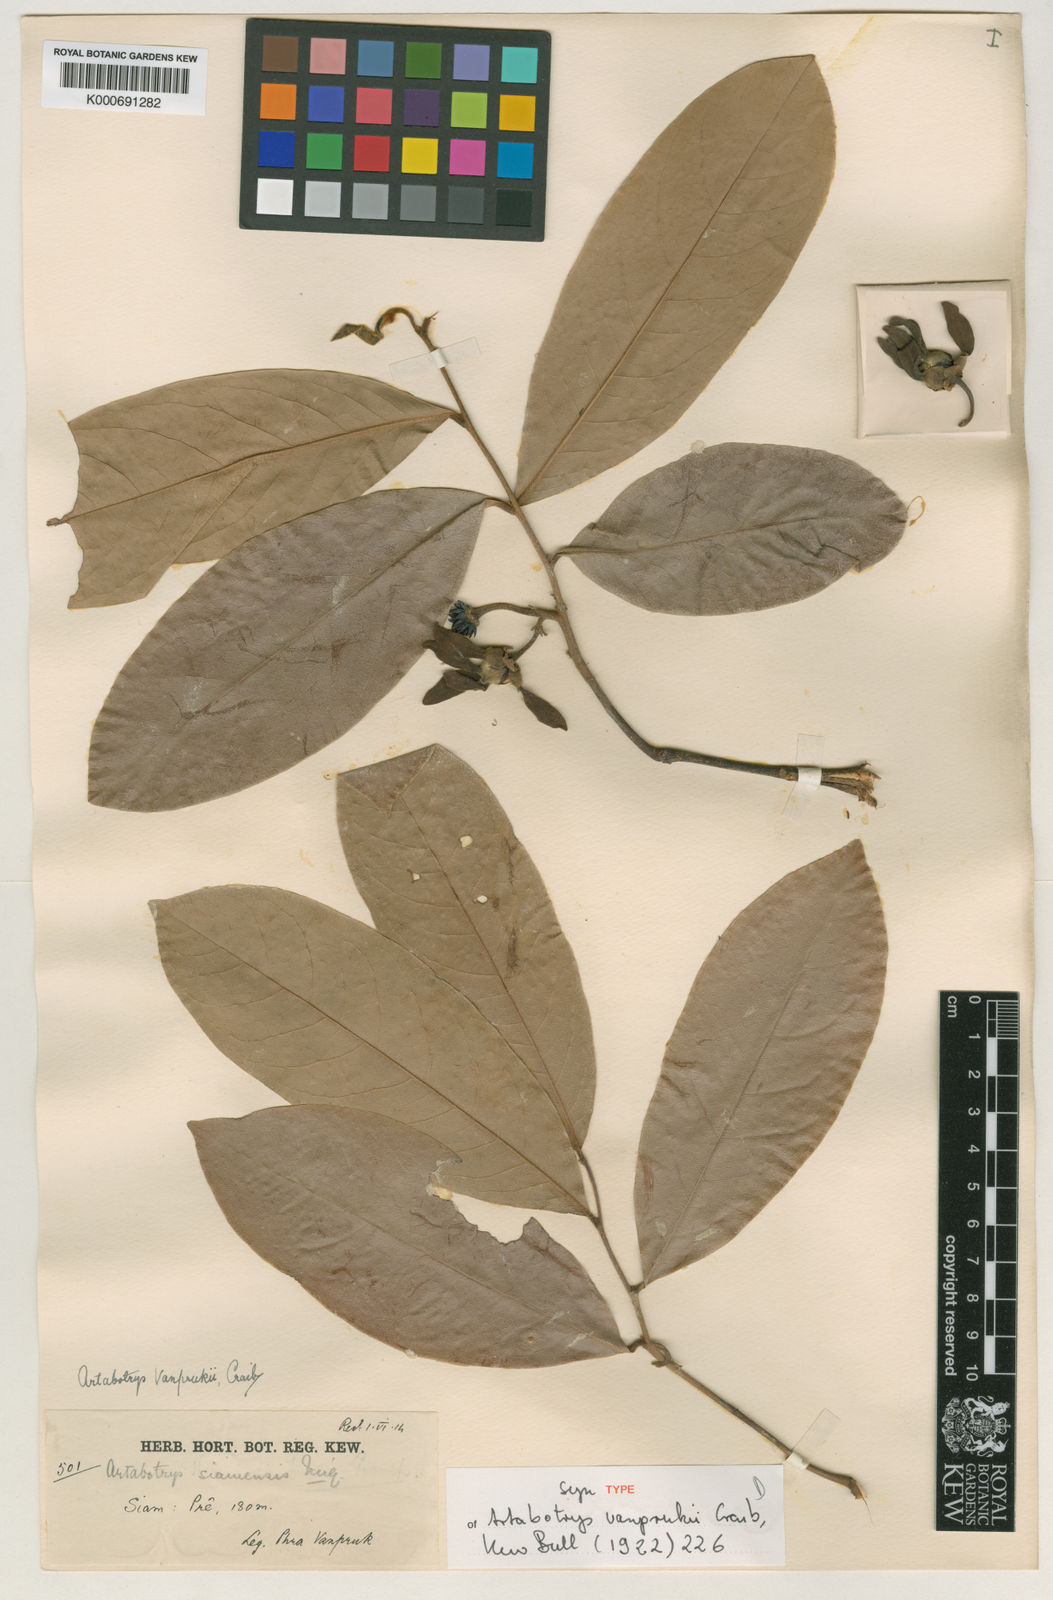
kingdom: Plantae
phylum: Tracheophyta
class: Magnoliopsida
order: Magnoliales
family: Annonaceae
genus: Artabotrys
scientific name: Artabotrys vanprukii
